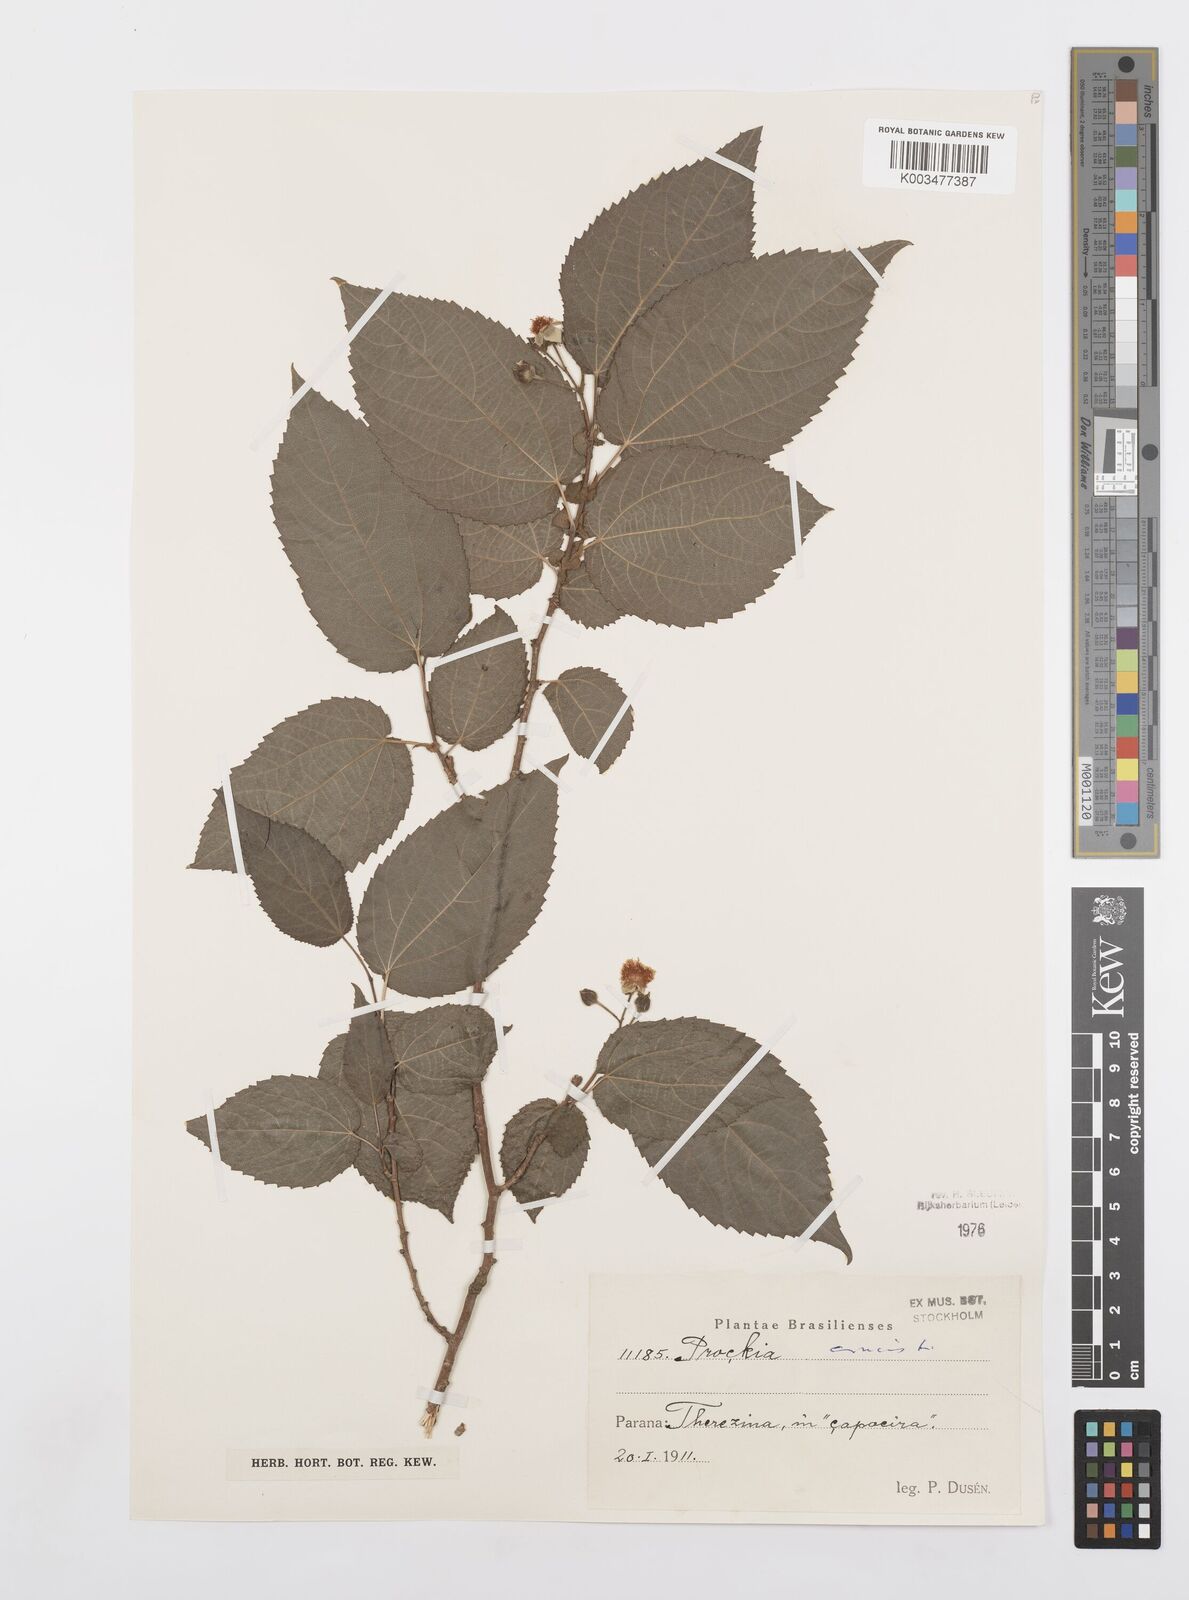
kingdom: Plantae
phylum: Tracheophyta
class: Magnoliopsida
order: Malpighiales
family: Salicaceae
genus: Prockia
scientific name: Prockia crucis
